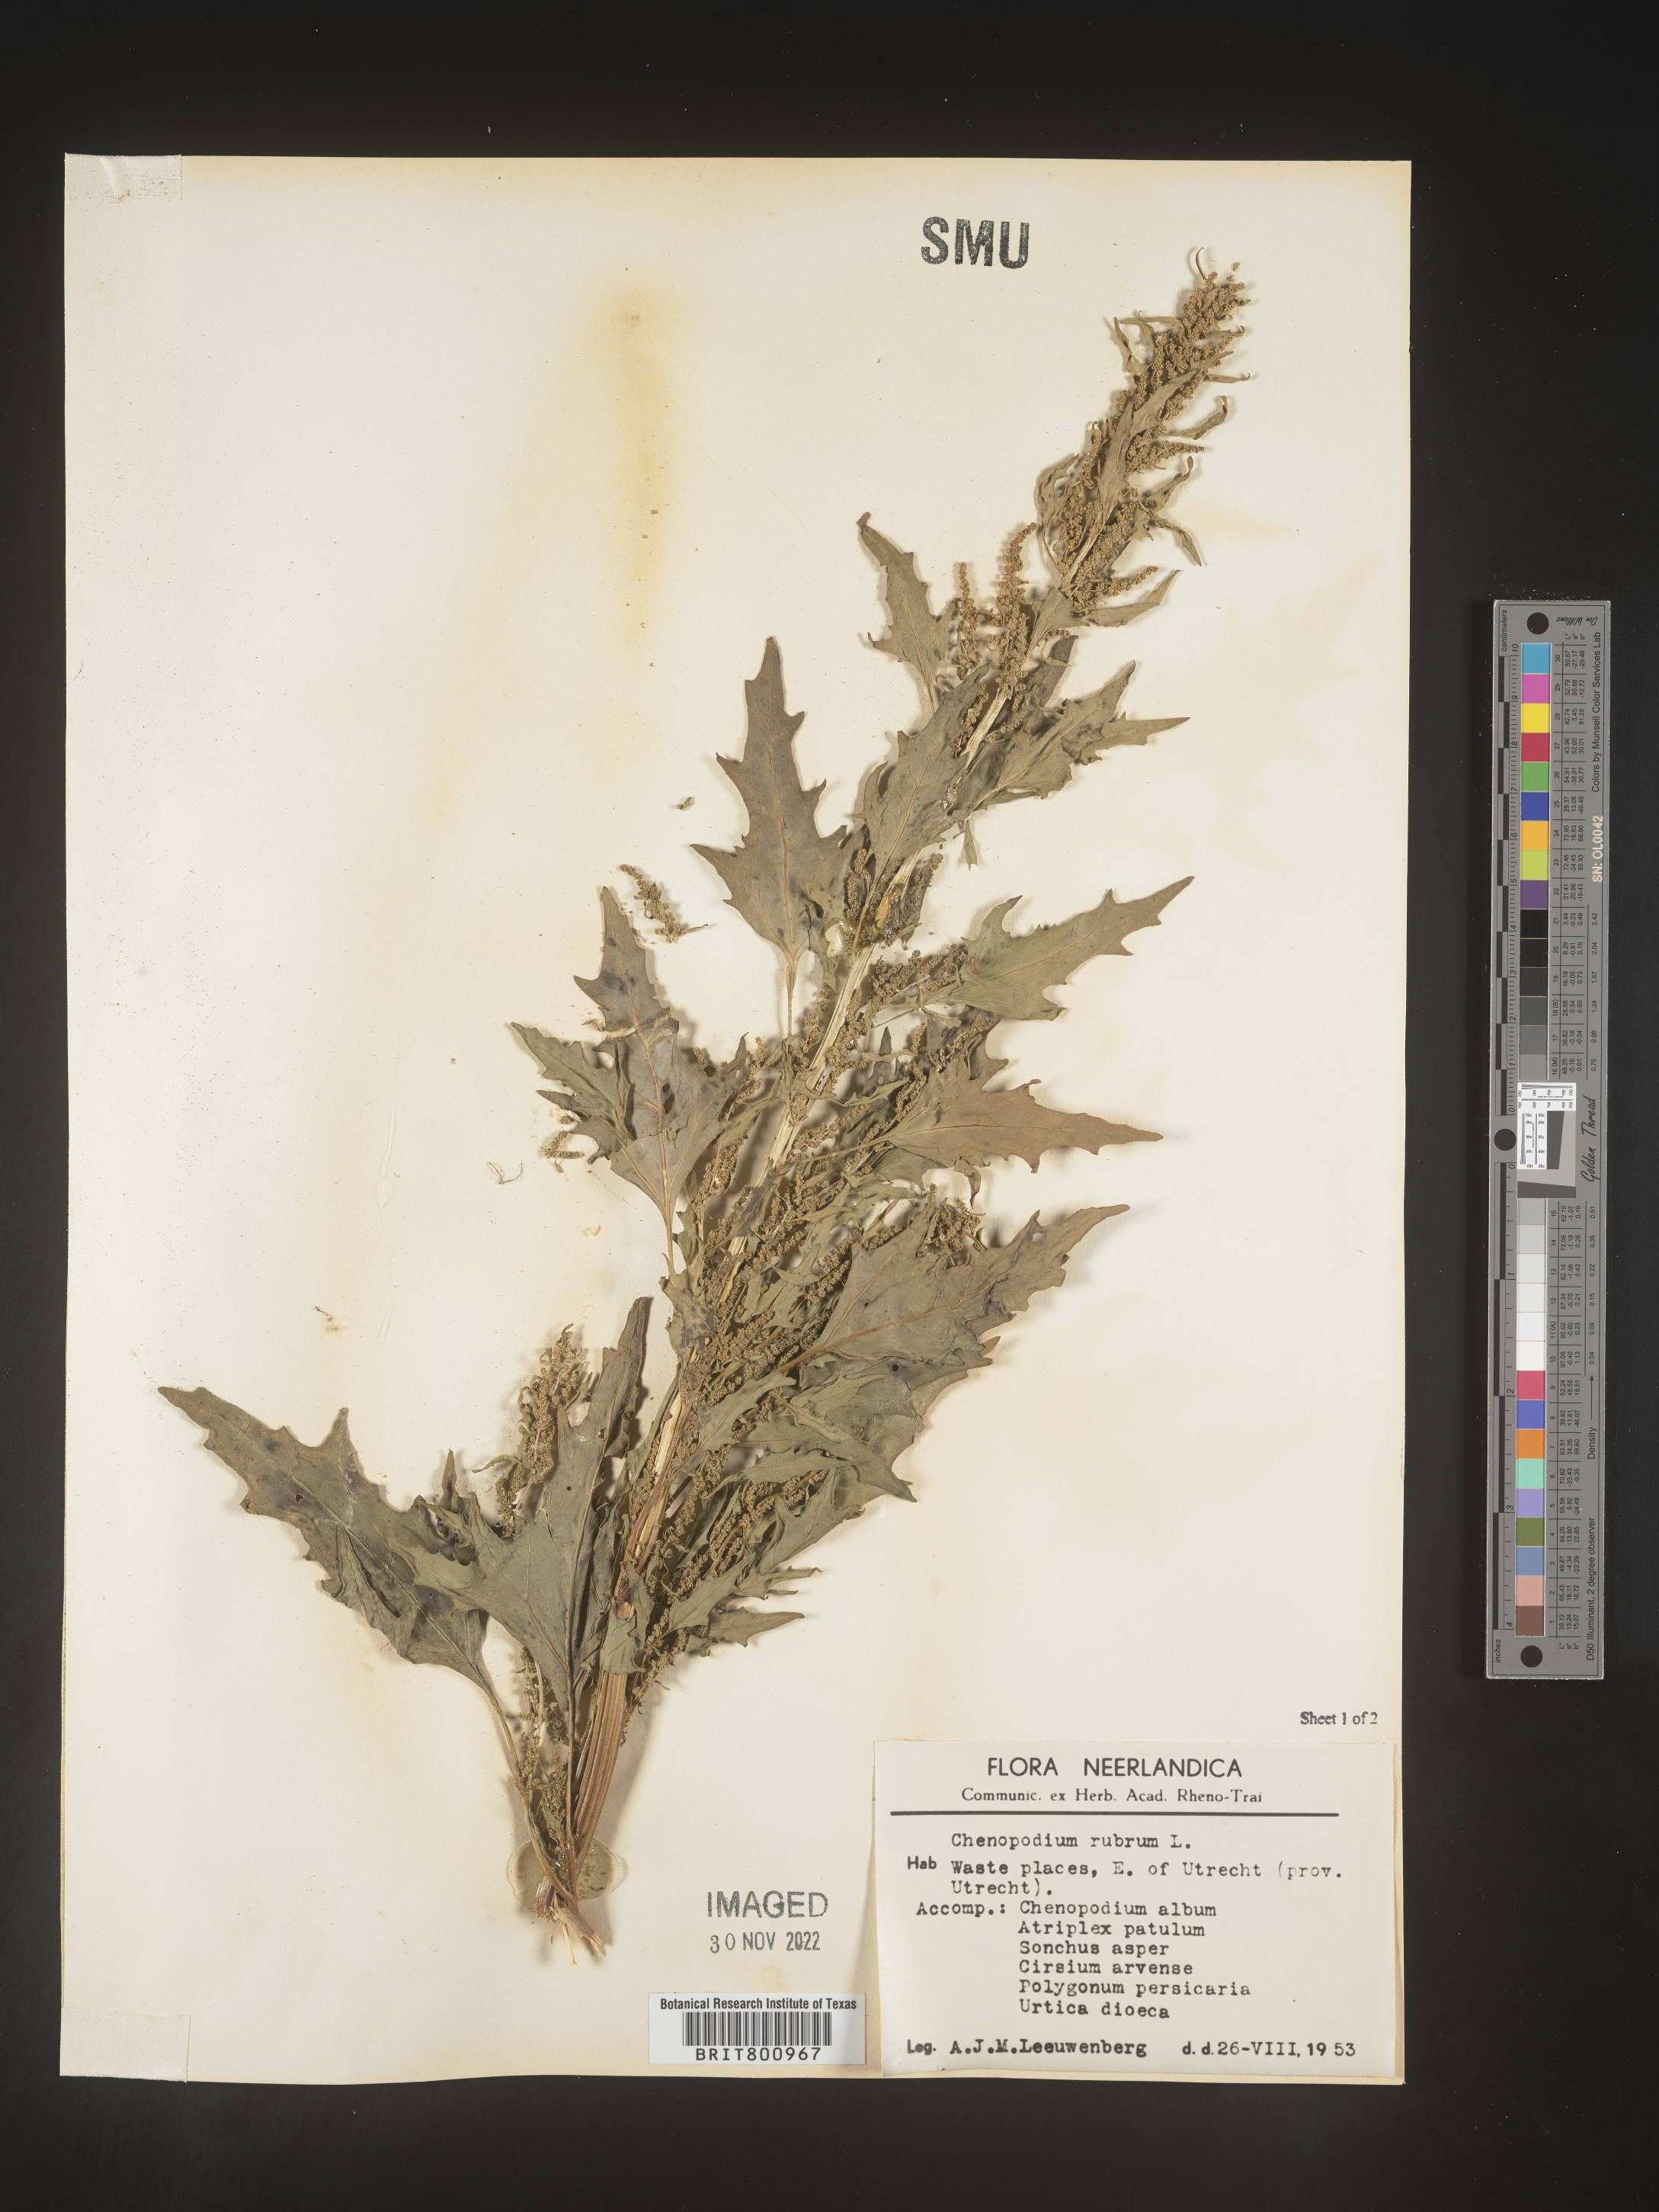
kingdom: Plantae
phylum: Tracheophyta
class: Magnoliopsida
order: Caryophyllales
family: Amaranthaceae
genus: Oxybasis
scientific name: Oxybasis rubra
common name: Red goosefoot
